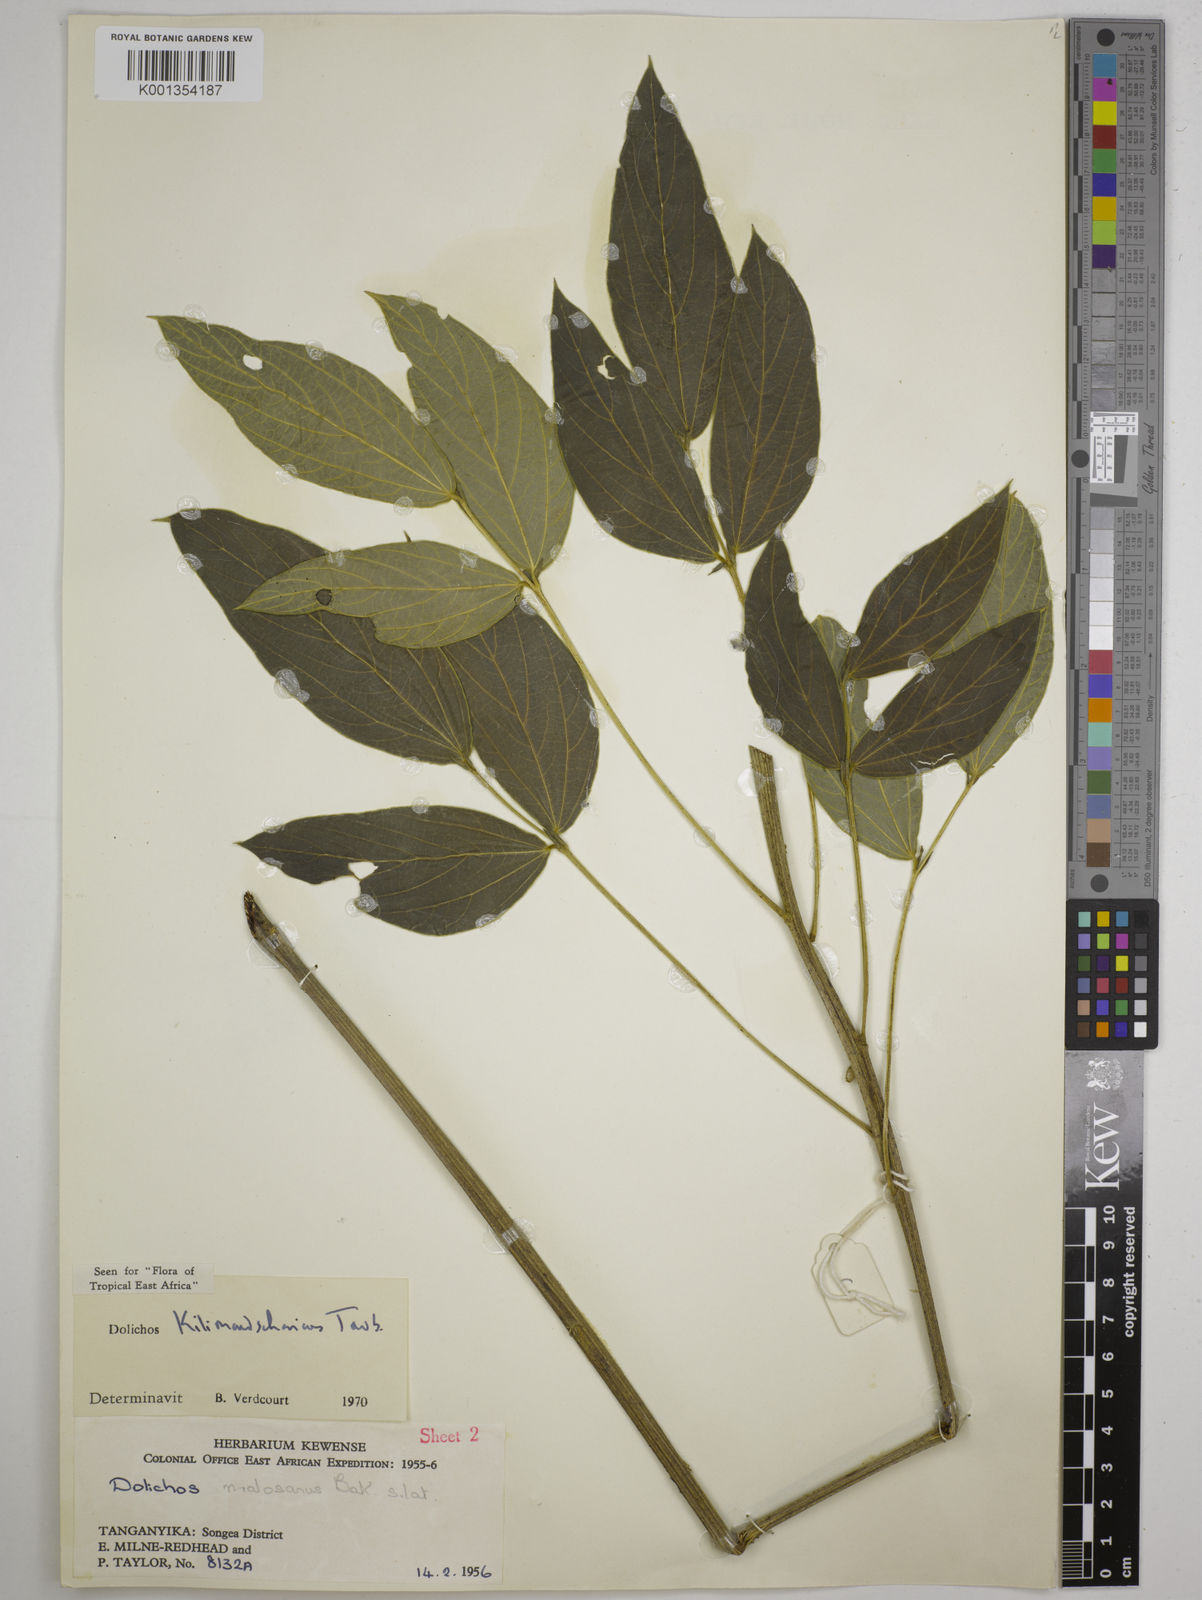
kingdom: Plantae
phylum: Tracheophyta
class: Magnoliopsida
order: Fabales
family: Fabaceae
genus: Dolichos
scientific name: Dolichos kilimandscharicus
